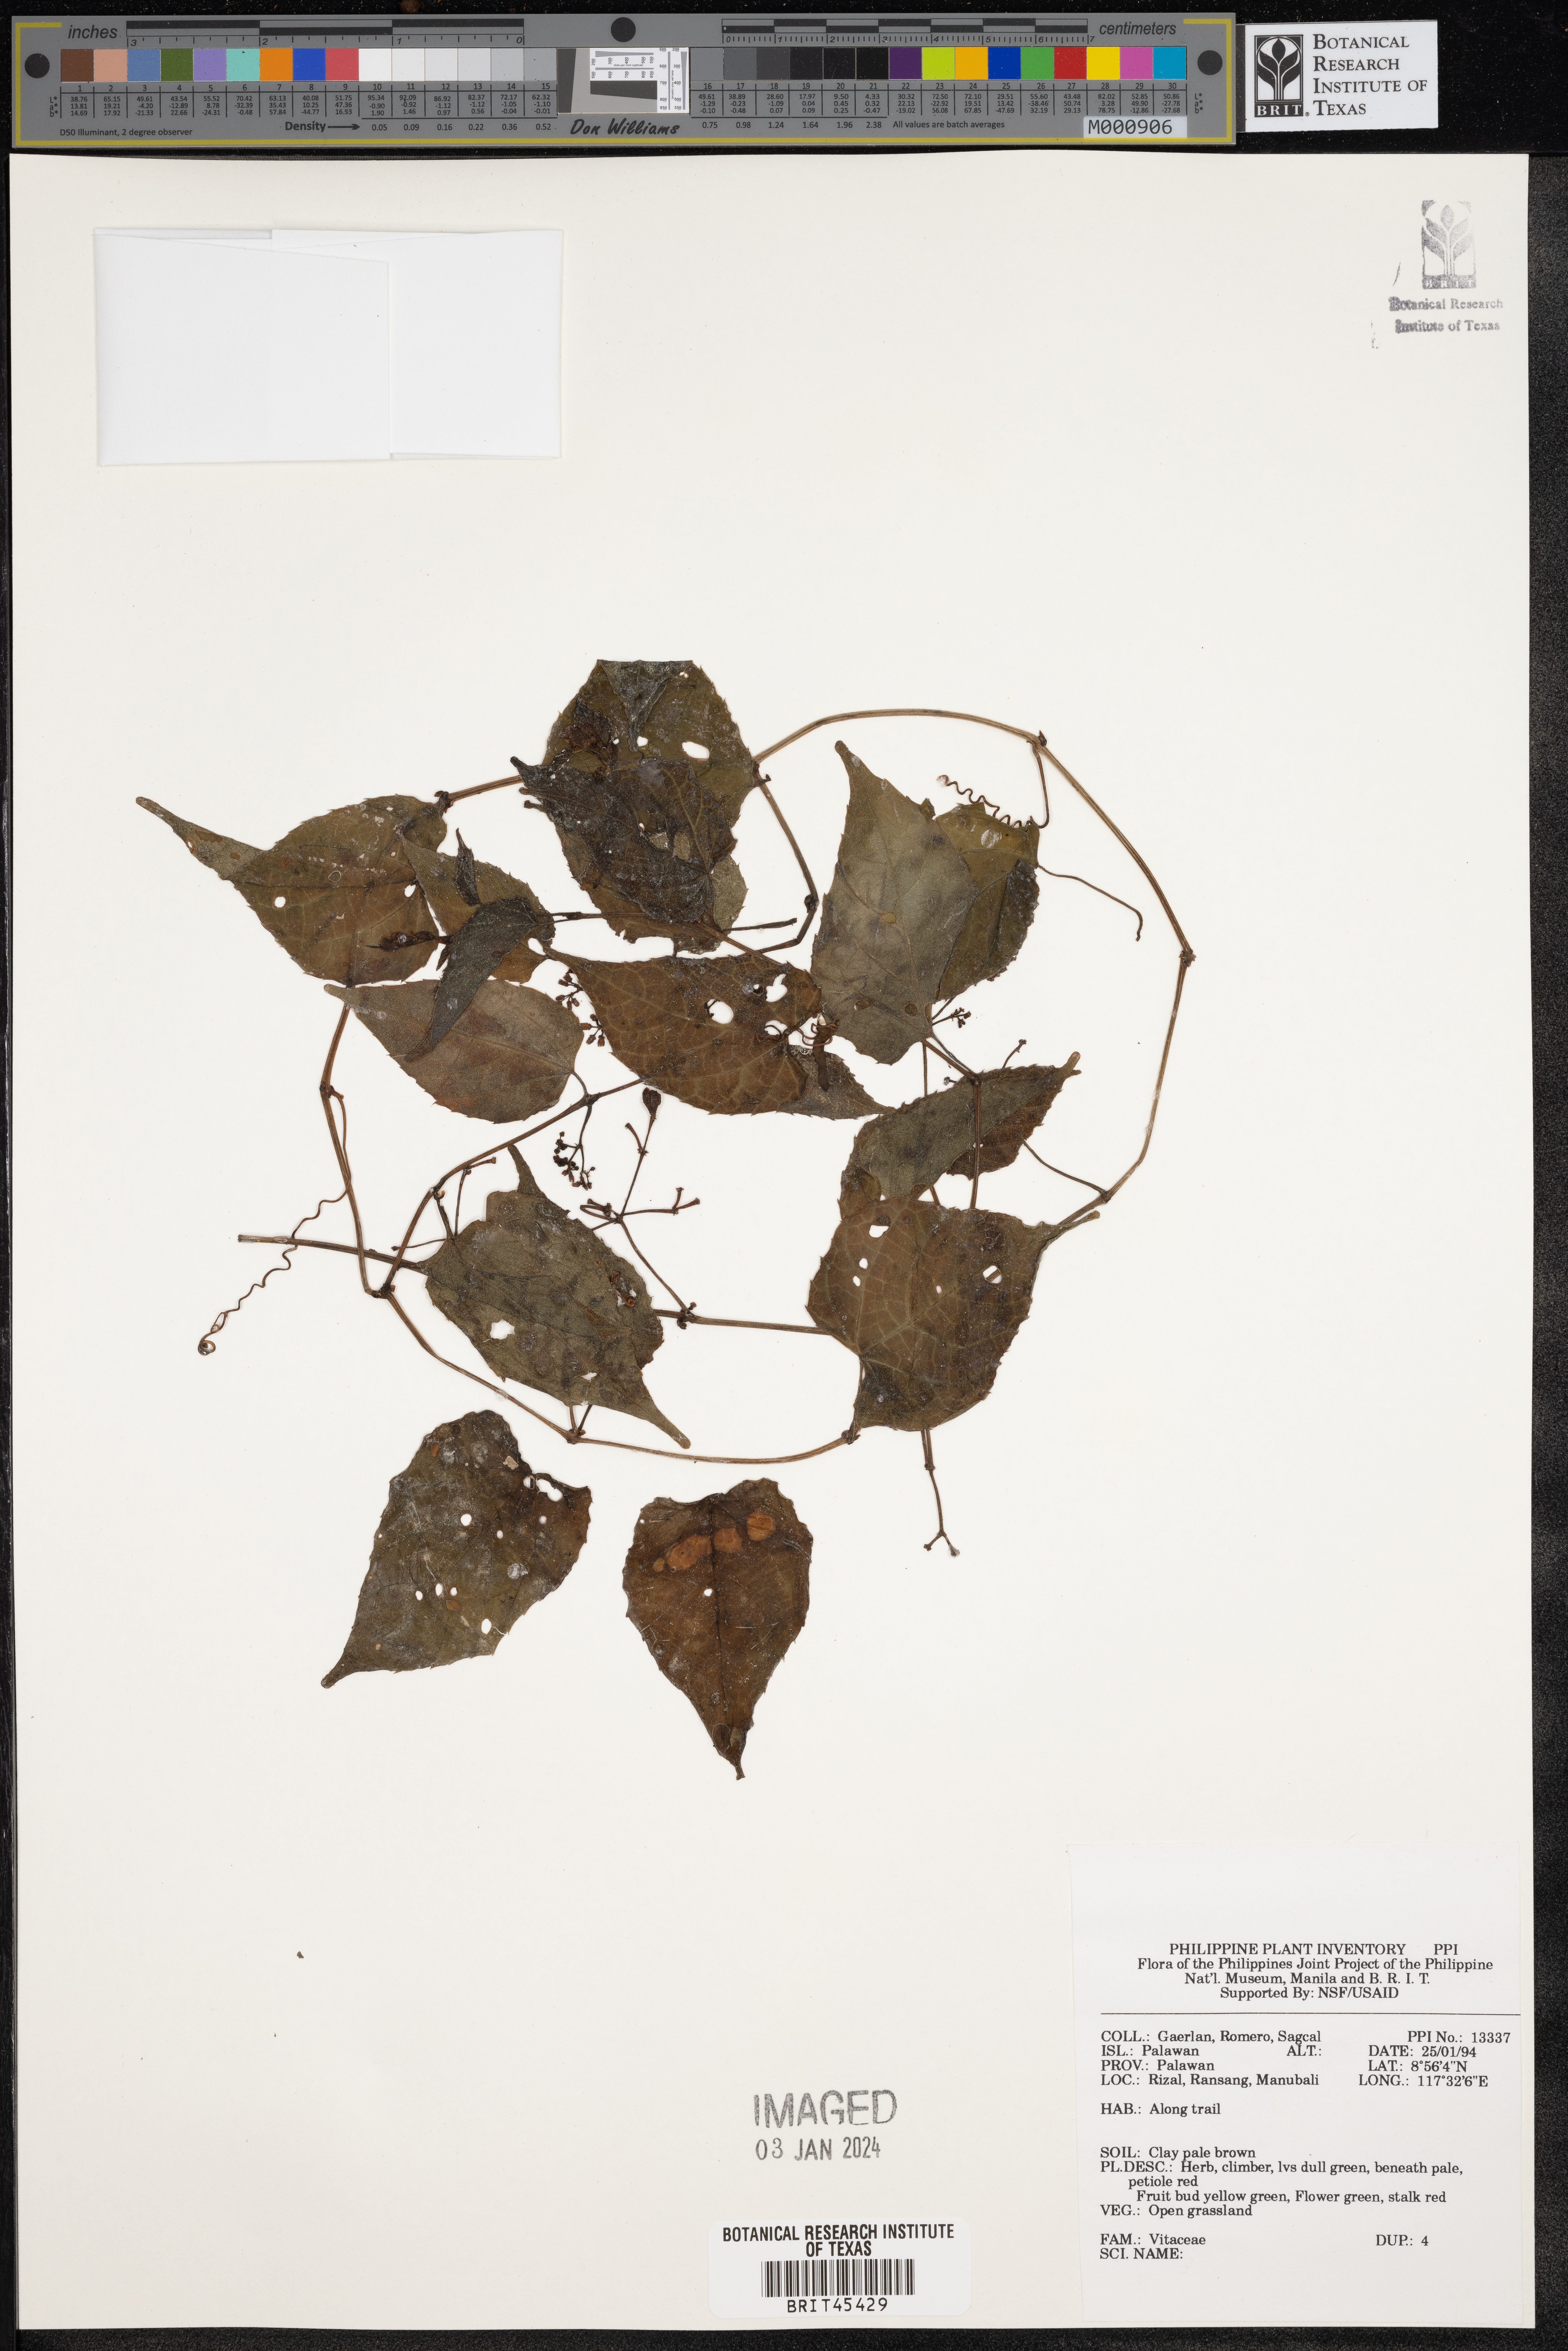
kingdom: Plantae
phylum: Tracheophyta
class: Magnoliopsida
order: Vitales
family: Vitaceae
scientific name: Vitaceae
